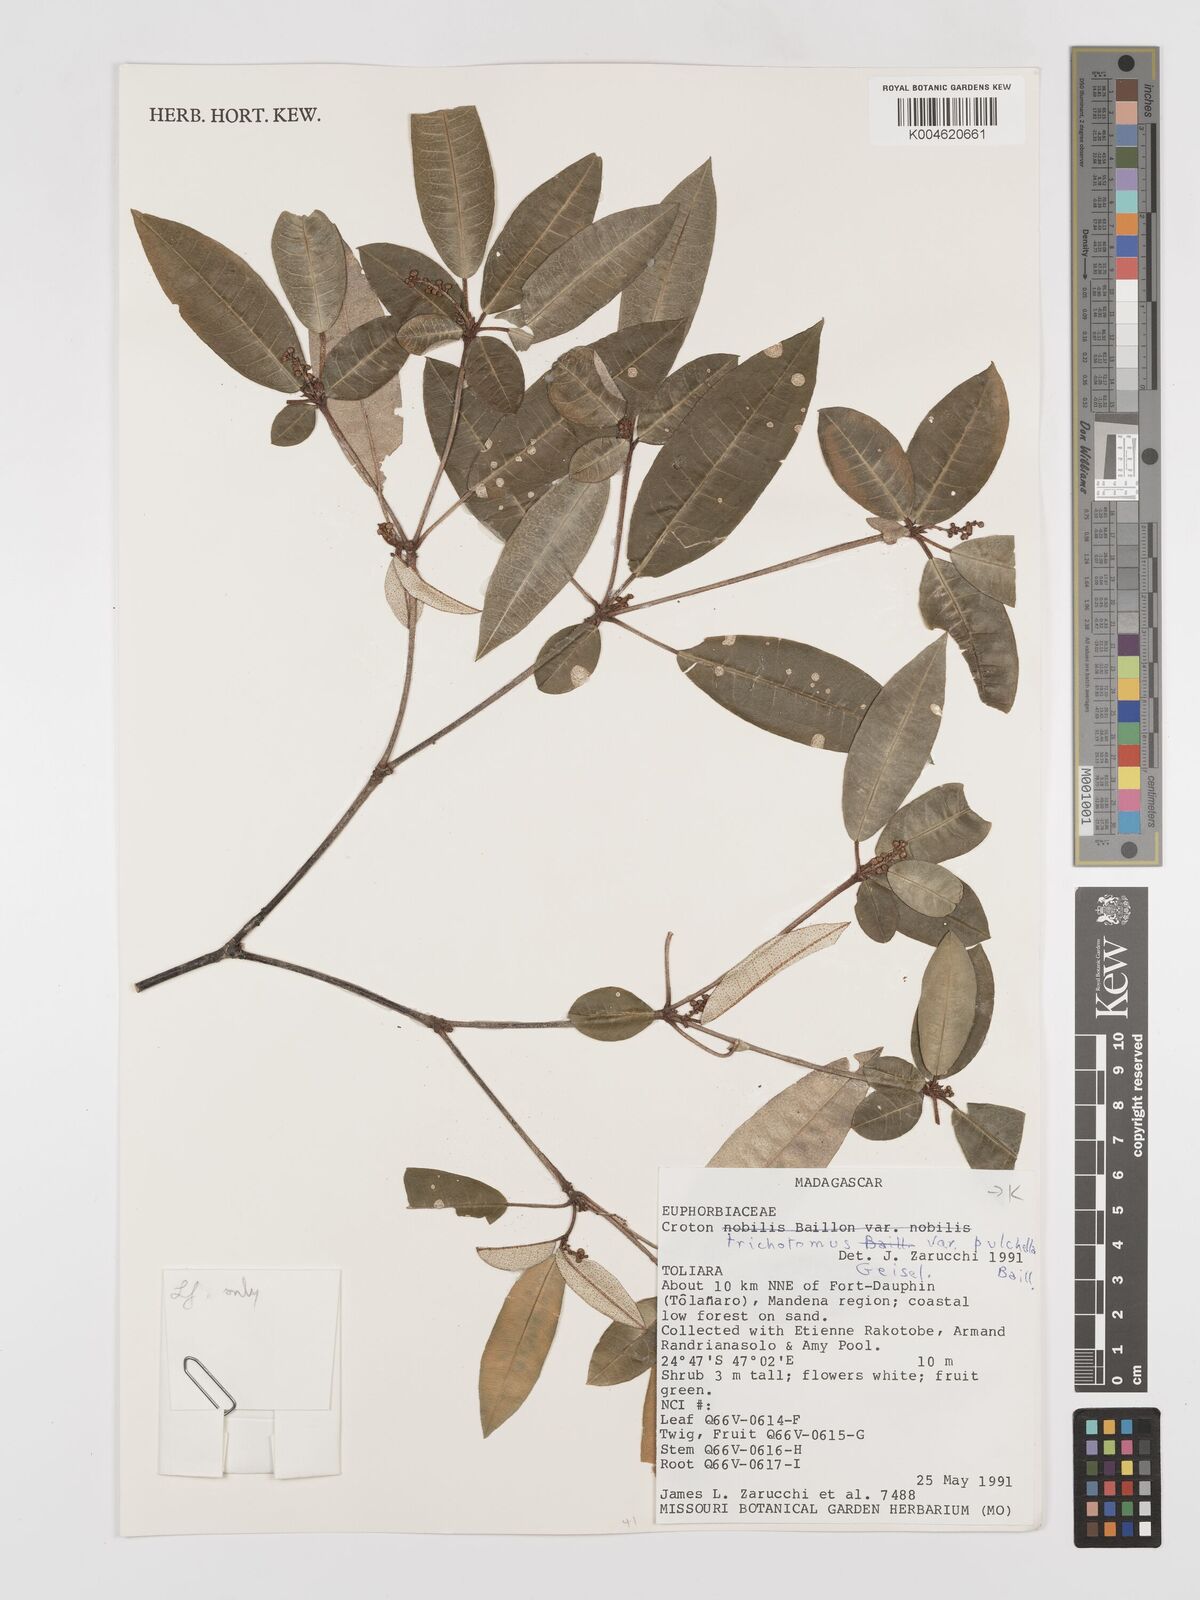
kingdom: Plantae
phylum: Tracheophyta
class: Magnoliopsida
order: Malpighiales
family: Euphorbiaceae
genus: Croton
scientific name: Croton trichotomus
